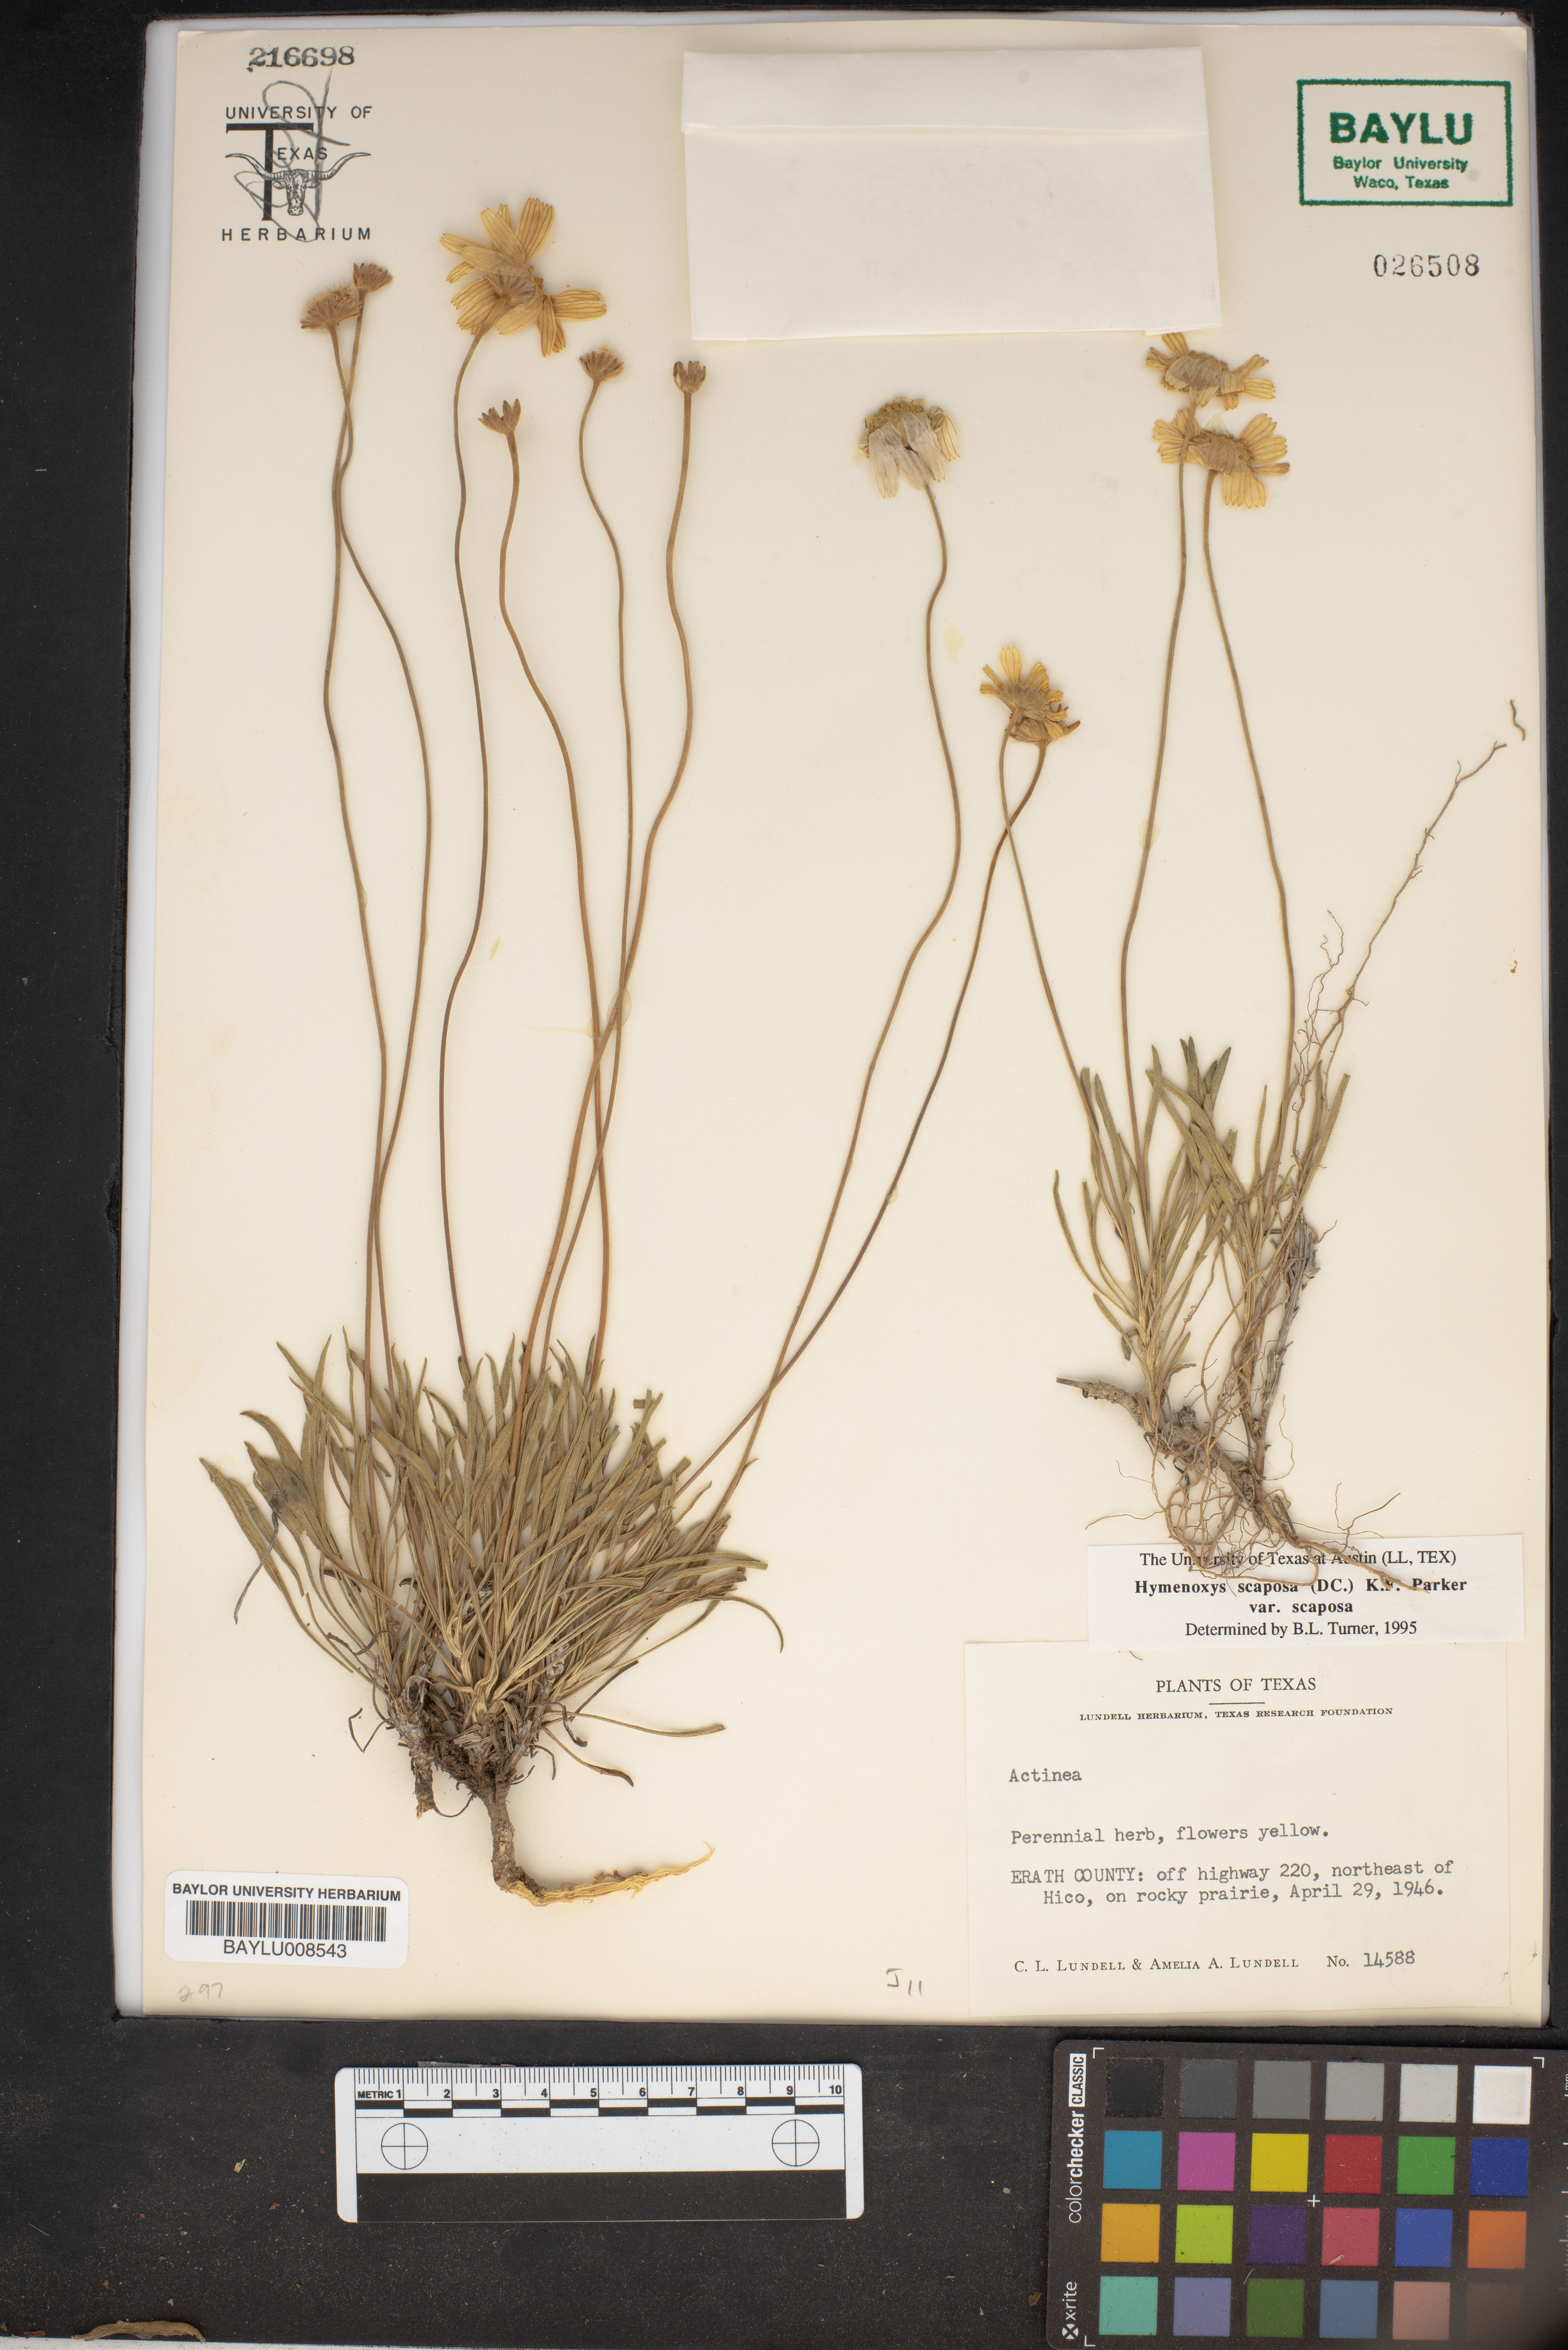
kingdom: Plantae
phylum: Tracheophyta
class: Magnoliopsida
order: Asterales
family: Asteraceae
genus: Tetraneuris
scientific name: Tetraneuris scaposa
